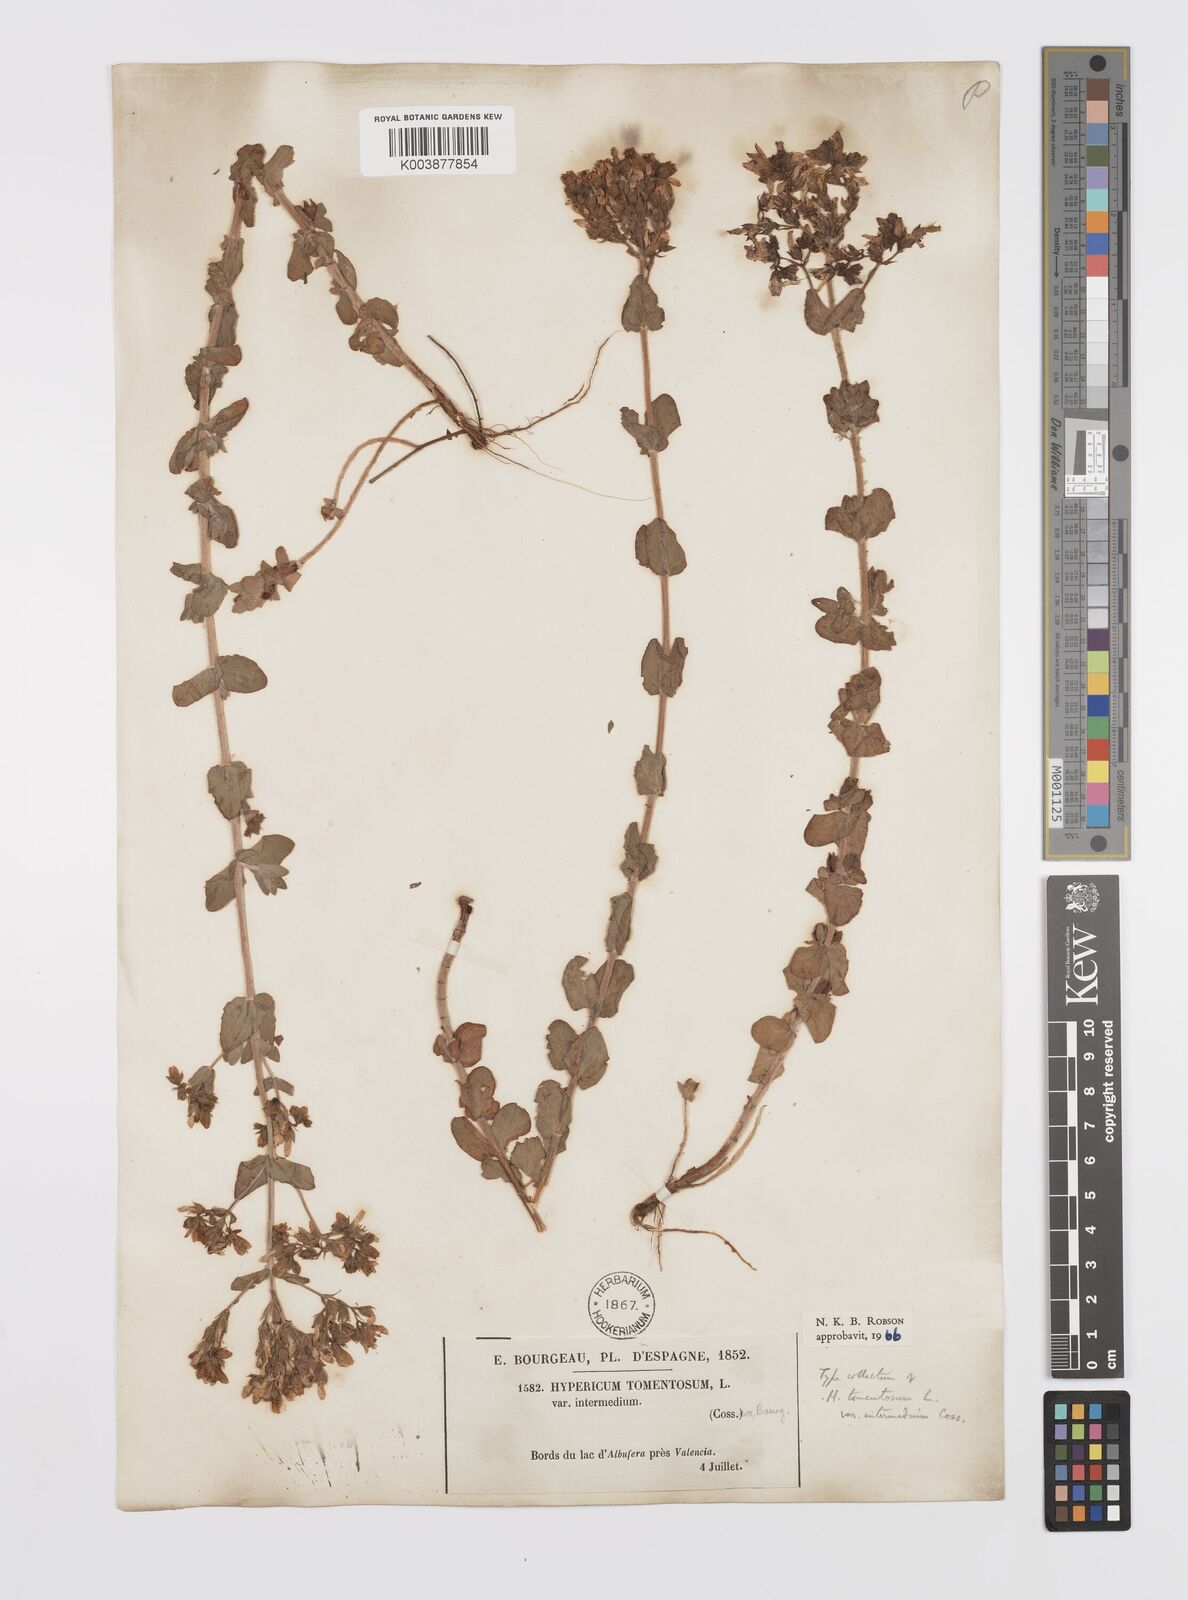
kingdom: Plantae
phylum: Tracheophyta
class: Magnoliopsida
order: Malpighiales
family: Hypericaceae
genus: Hypericum
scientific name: Hypericum tomentosum
